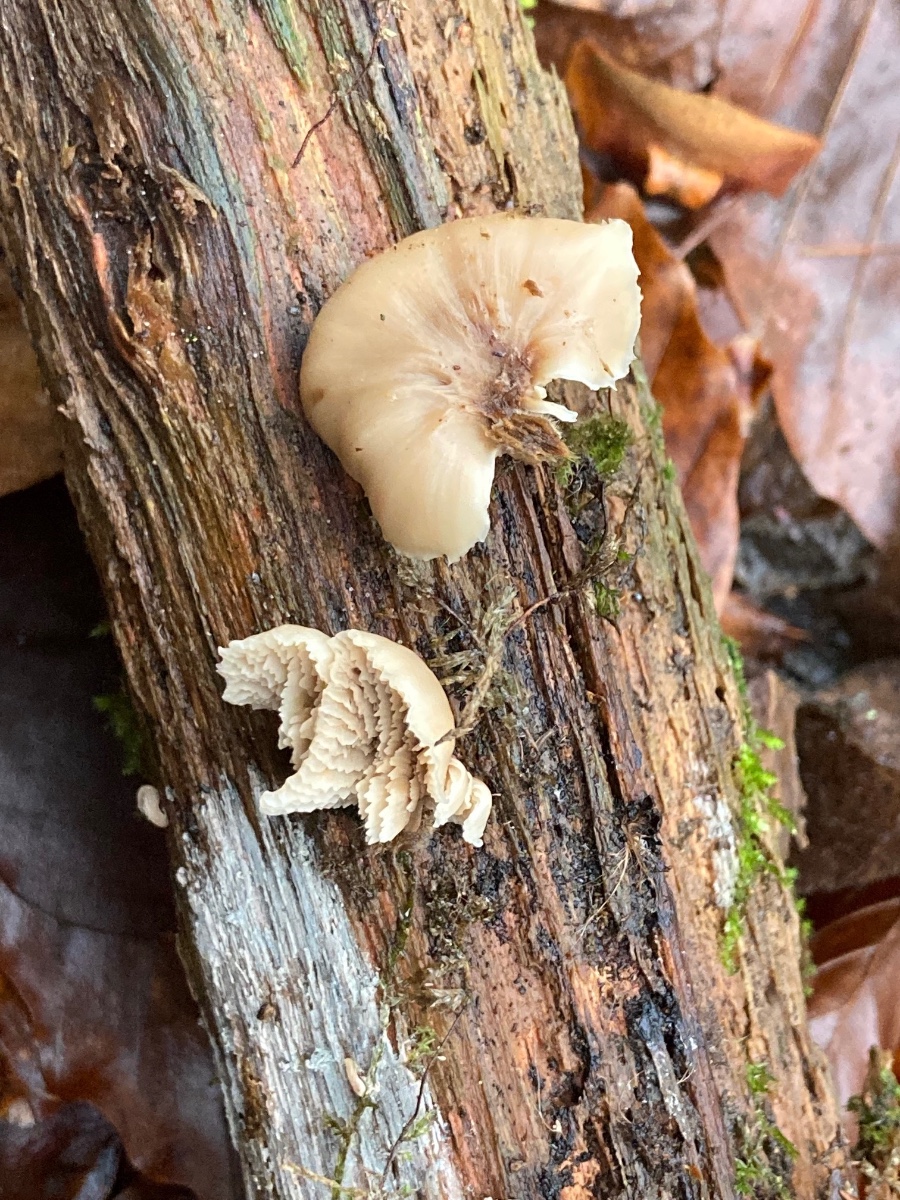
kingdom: Fungi
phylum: Basidiomycota
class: Agaricomycetes
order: Russulales
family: Auriscalpiaceae
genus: Lentinellus
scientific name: Lentinellus flabelliformis
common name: navle-savbladhat
